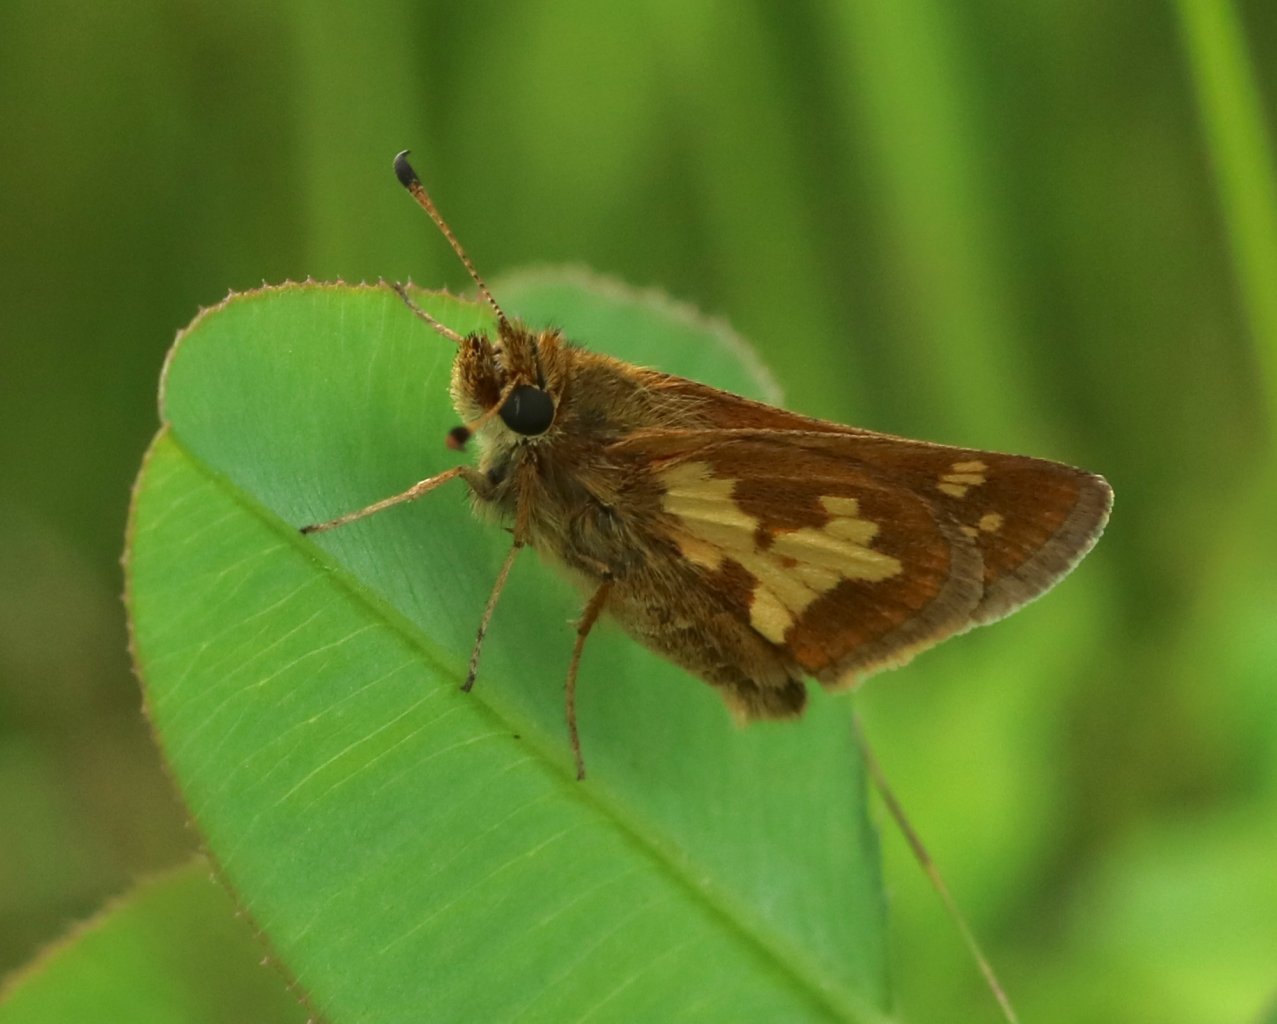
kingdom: Animalia
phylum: Arthropoda
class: Insecta
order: Lepidoptera
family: Hesperiidae
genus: Polites
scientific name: Polites coras
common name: Peck's Skipper
